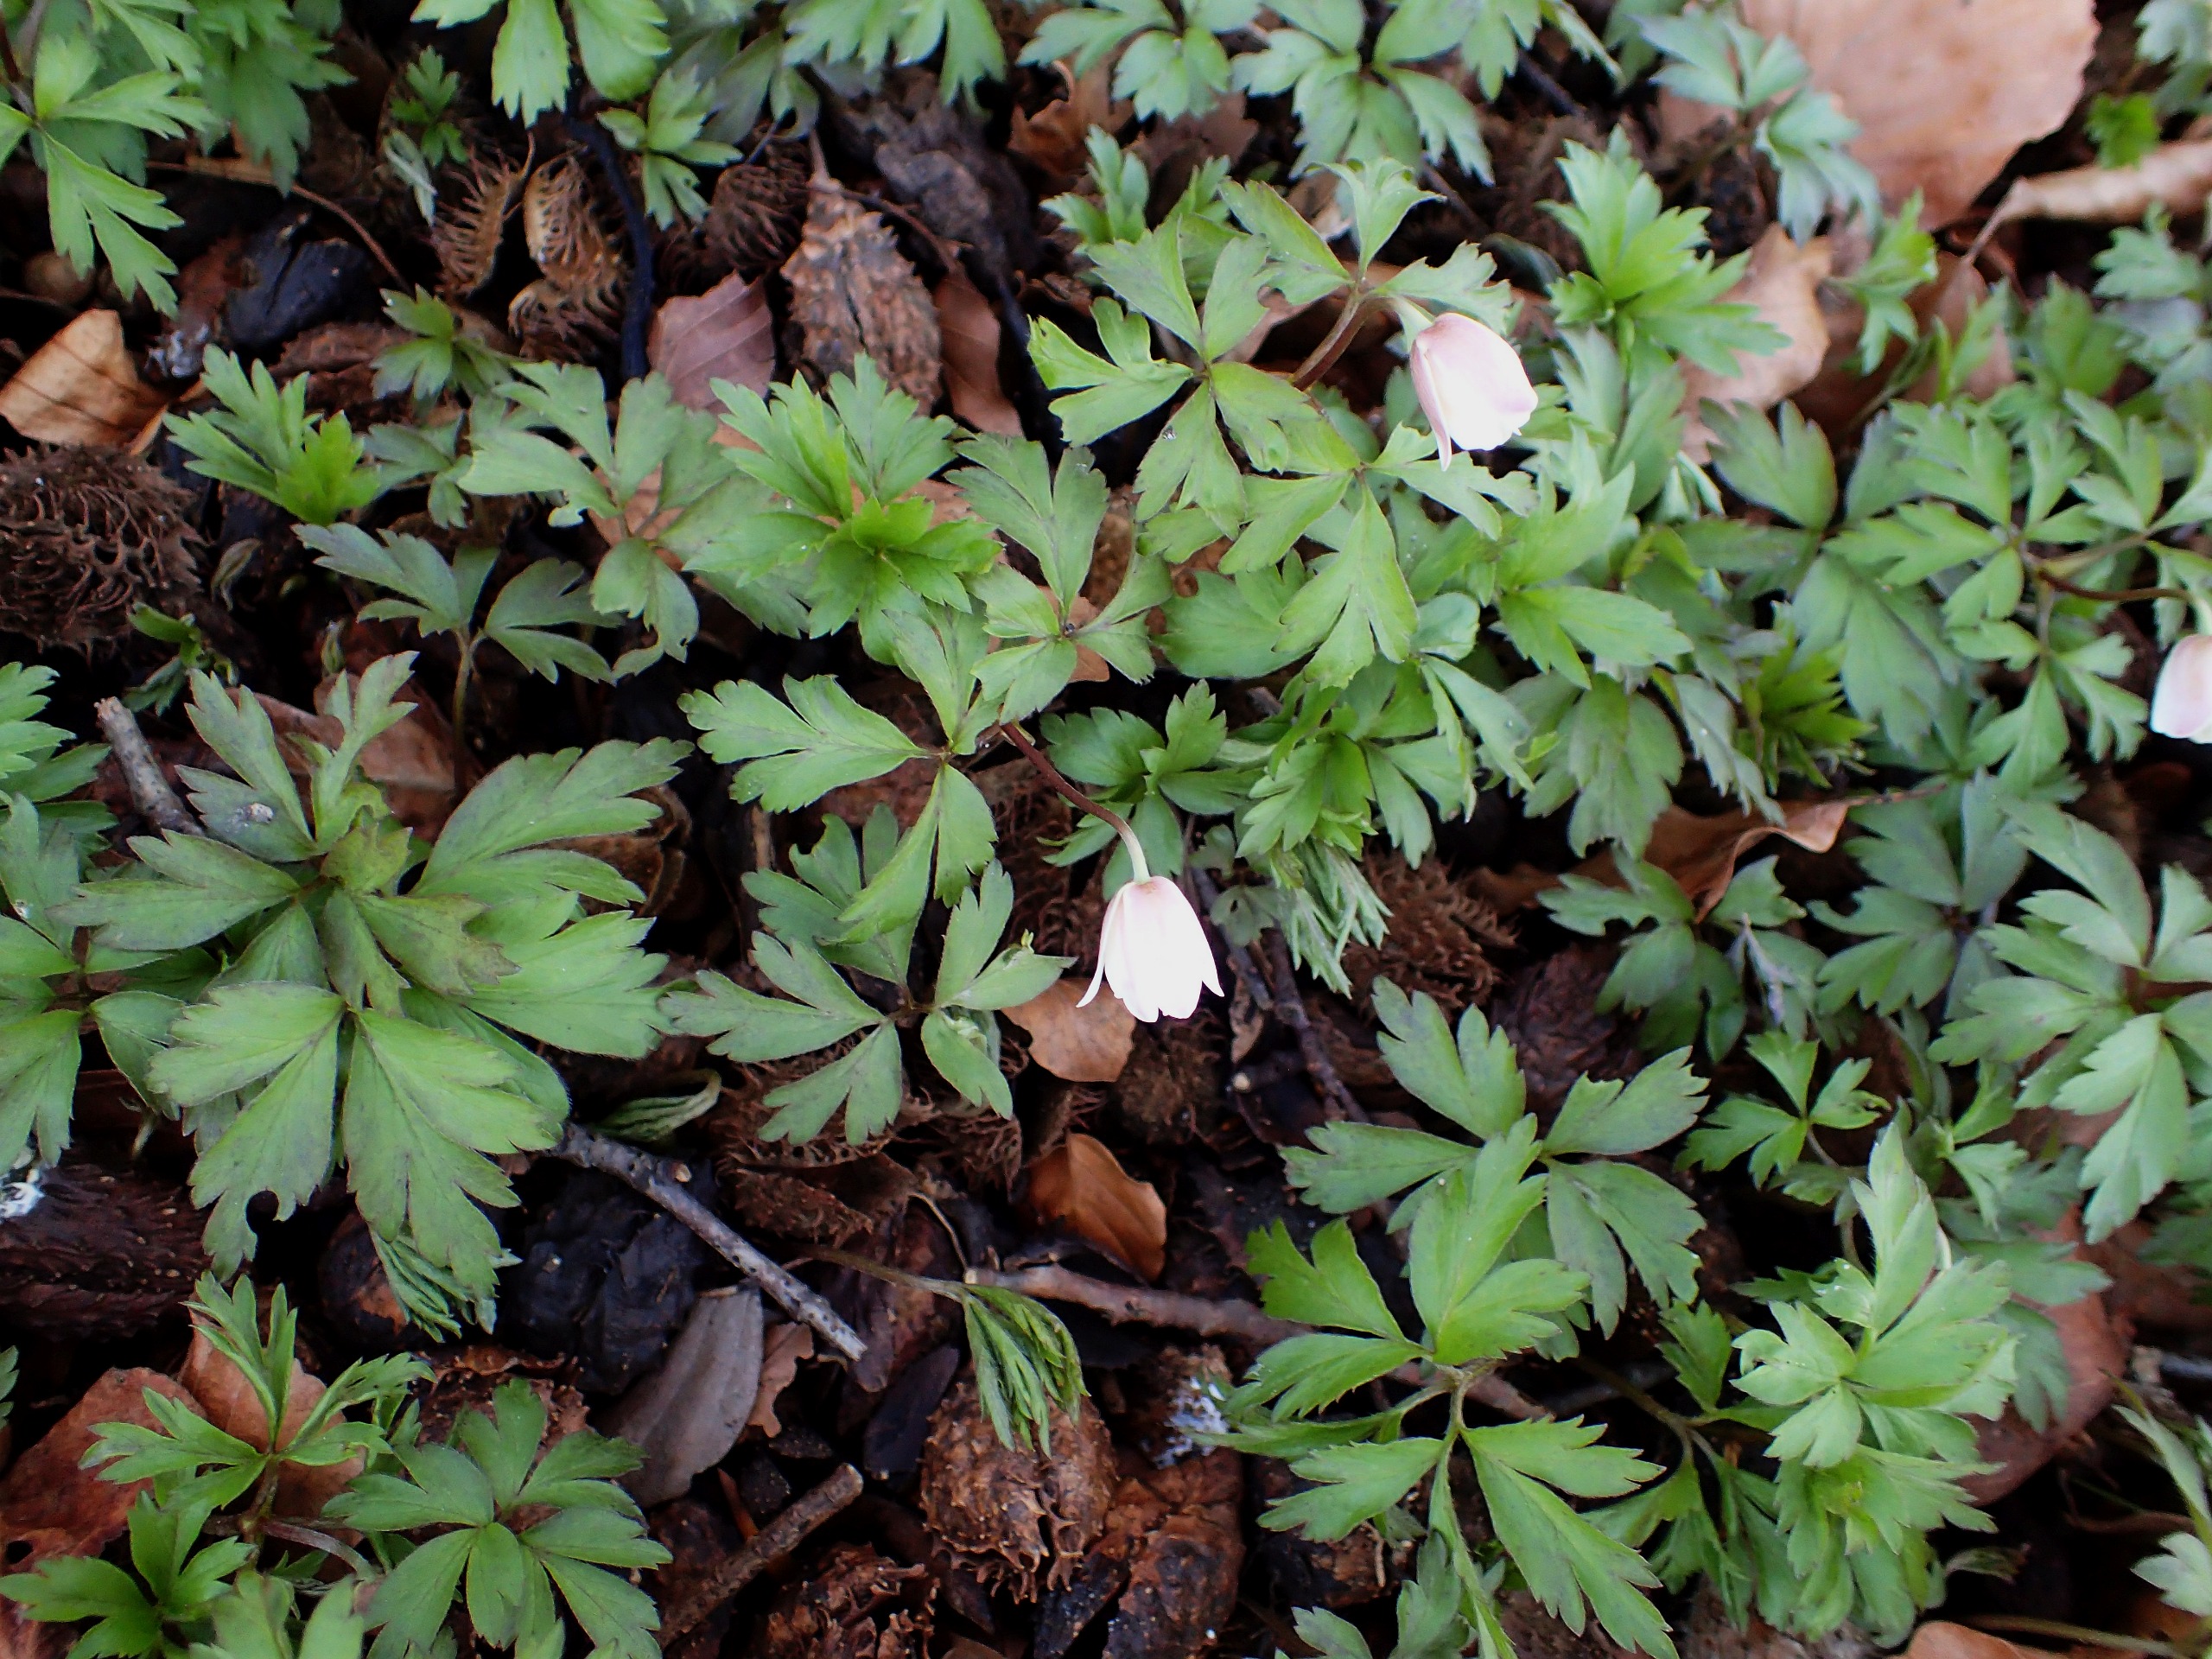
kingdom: Plantae
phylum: Tracheophyta
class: Magnoliopsida
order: Ranunculales
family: Ranunculaceae
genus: Anemone
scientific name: Anemone nemorosa
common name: Hvid anemone
